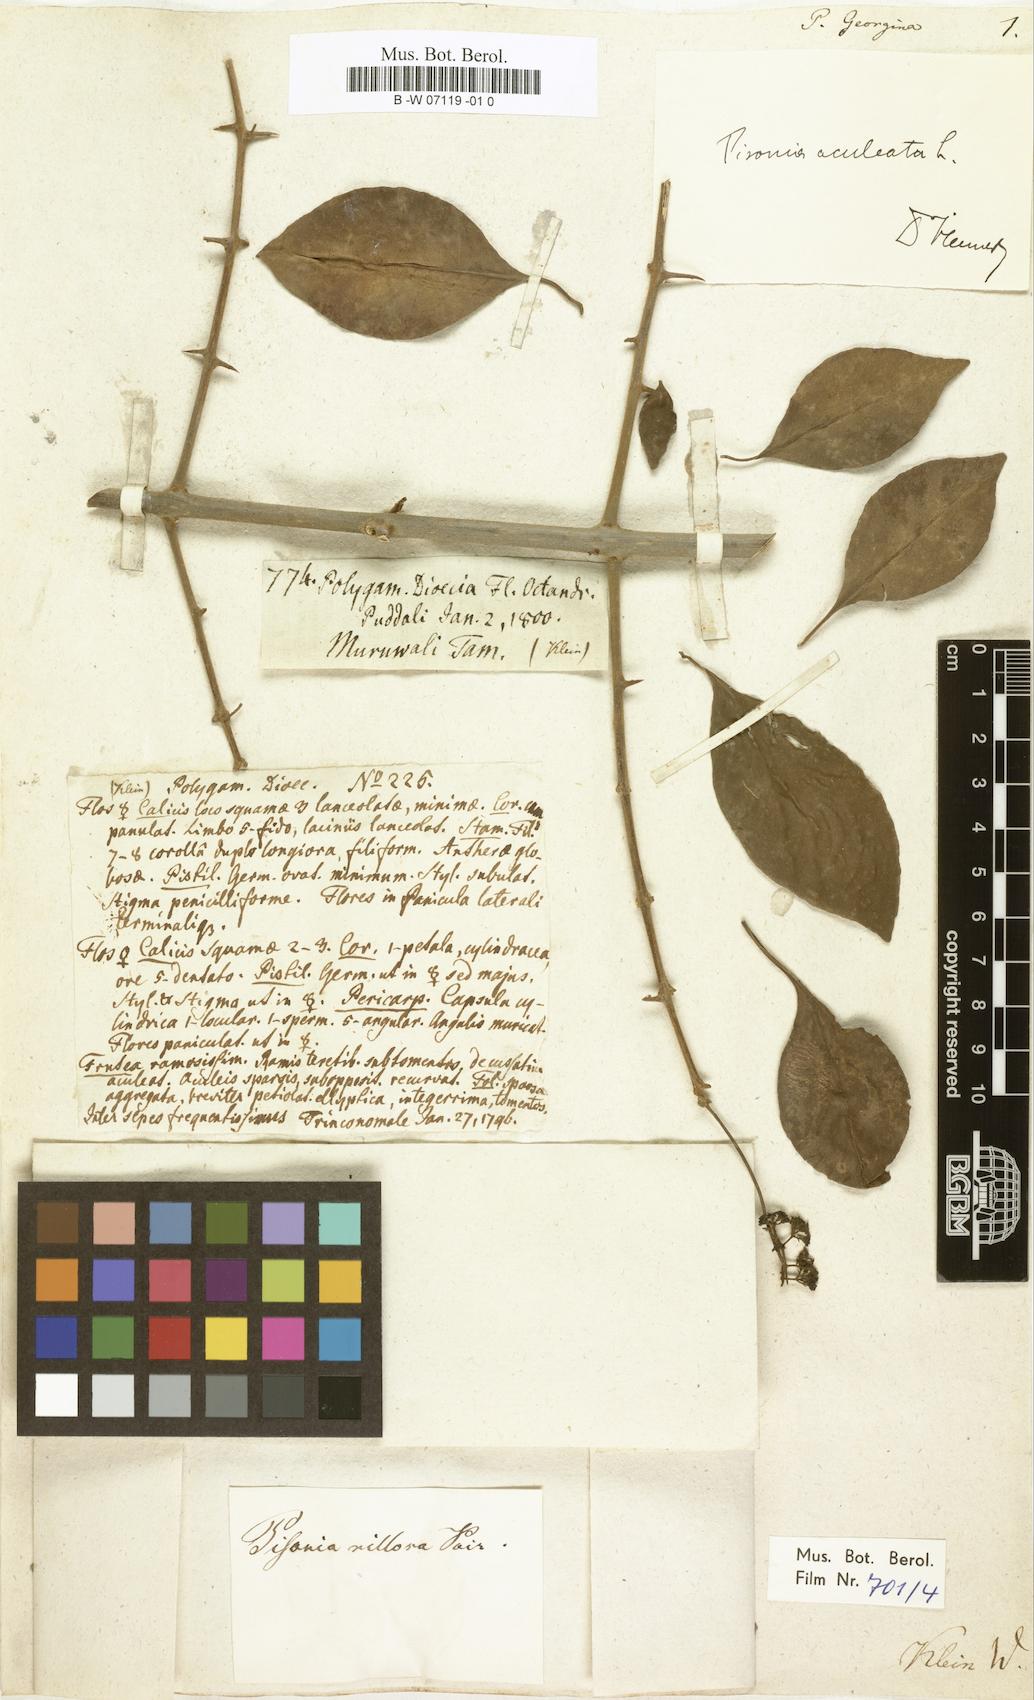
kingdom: Plantae
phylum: Tracheophyta
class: Magnoliopsida
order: Caryophyllales
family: Nyctaginaceae
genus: Pisonia
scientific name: Pisonia aculeata
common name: Cockspur vine
